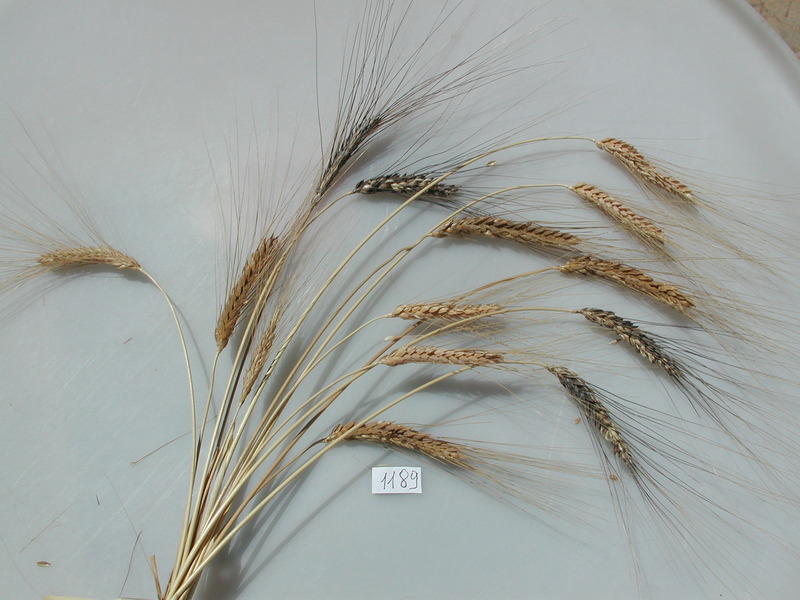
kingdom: Plantae
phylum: Tracheophyta
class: Liliopsida
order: Poales
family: Poaceae
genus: Triticum
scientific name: Triticum turgidum
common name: Wheat
